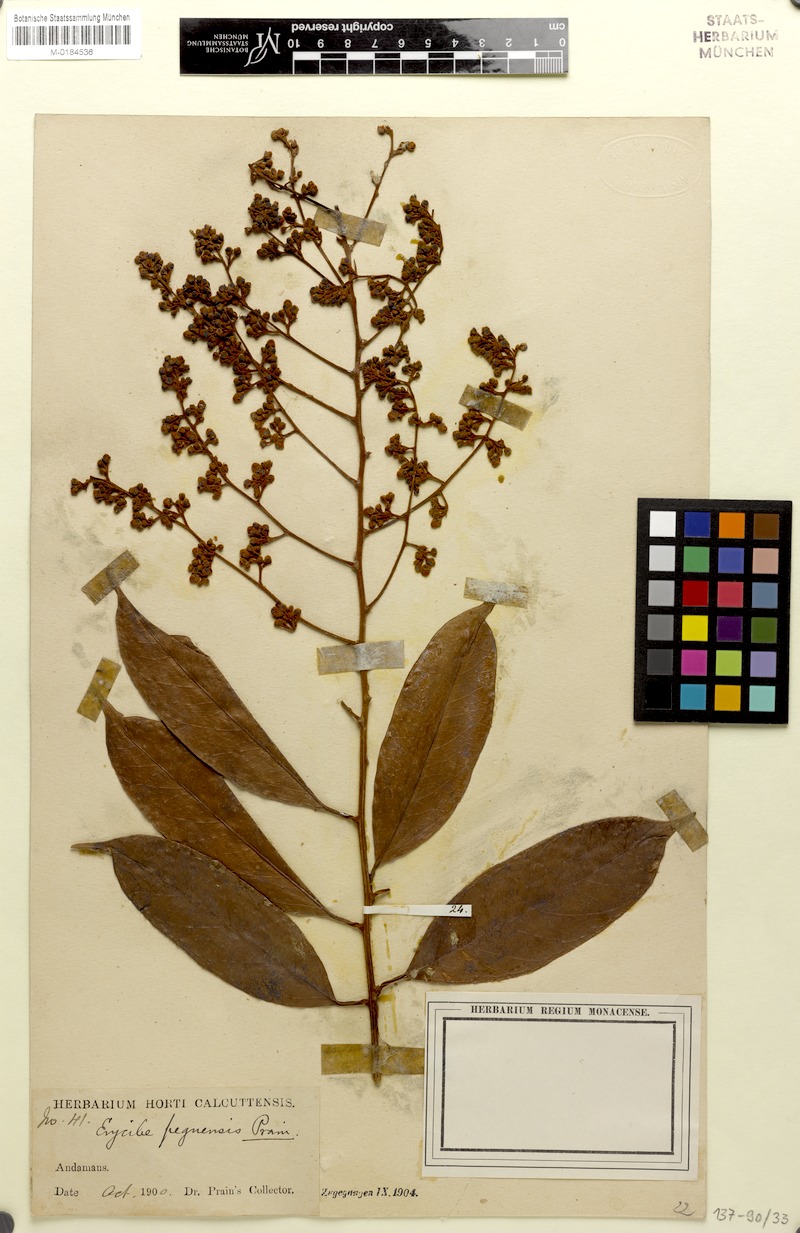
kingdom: Plantae
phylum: Tracheophyta
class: Magnoliopsida
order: Solanales
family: Convolvulaceae
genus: Argyreia
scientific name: Argyreia capitiformis
